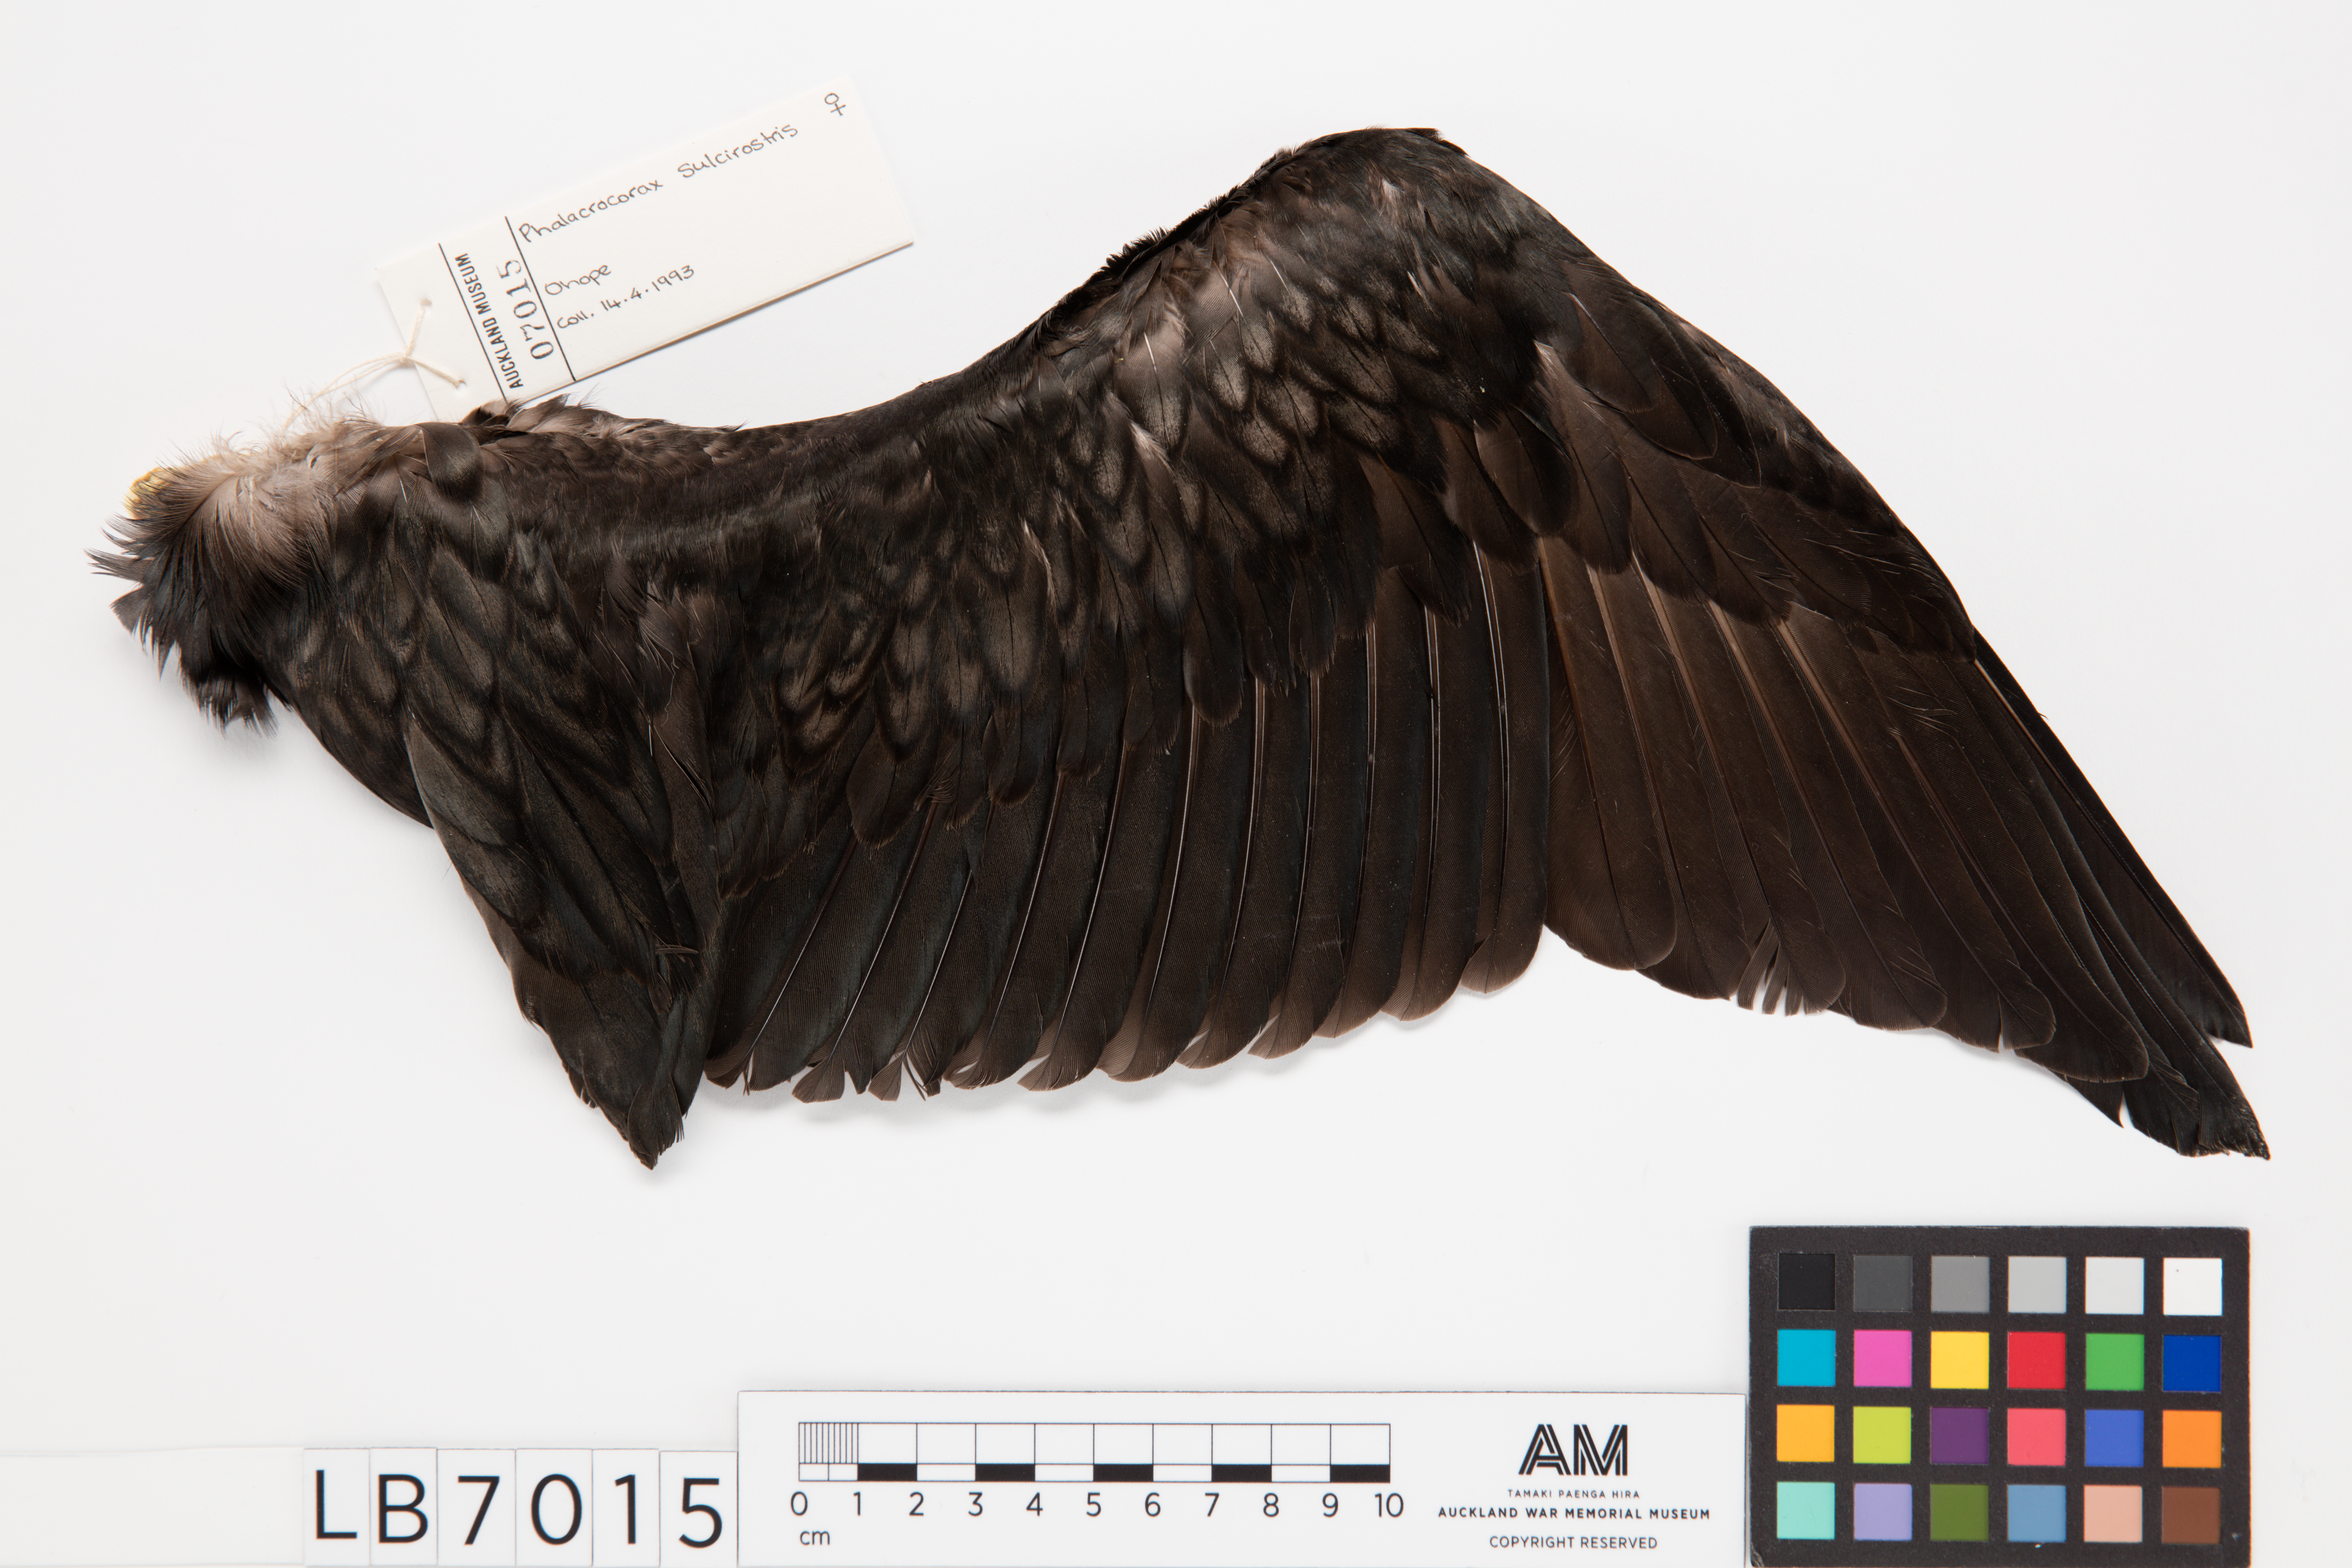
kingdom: Animalia
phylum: Chordata
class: Aves
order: Suliformes
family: Phalacrocoracidae
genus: Phalacrocorax
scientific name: Phalacrocorax sulcirostris
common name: Little black cormorant
